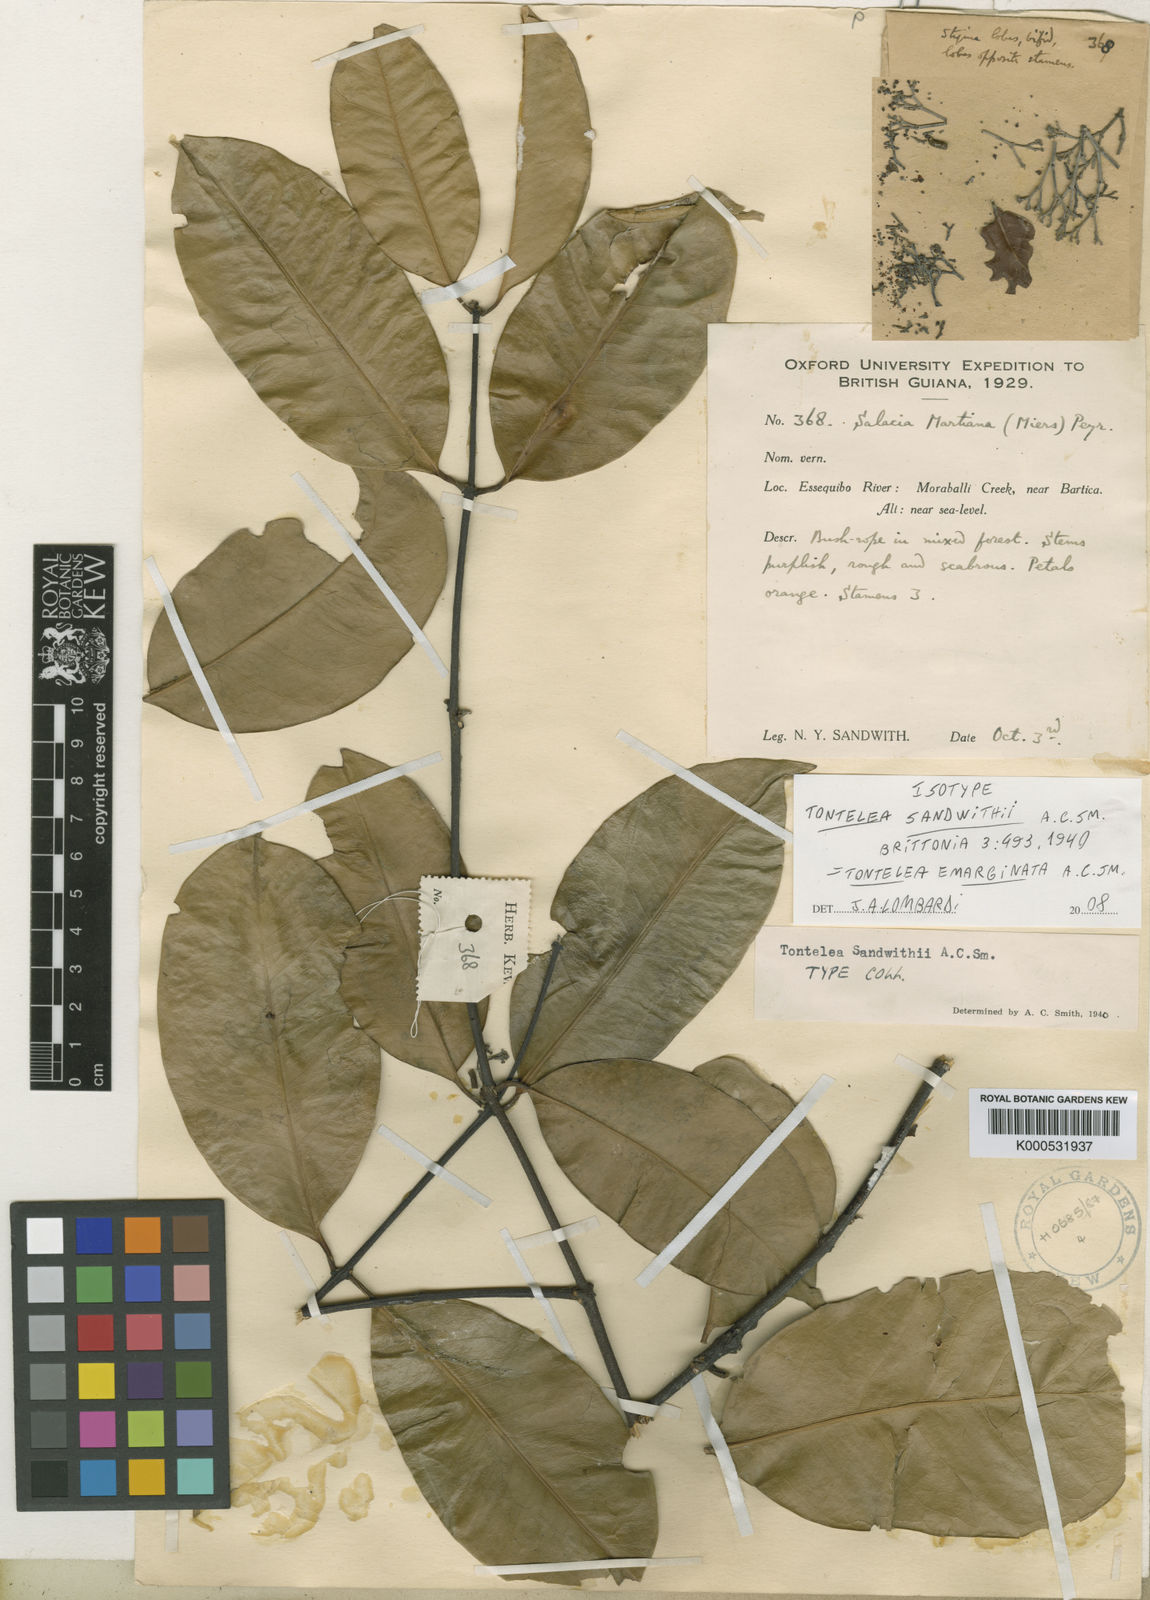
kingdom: Plantae
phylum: Tracheophyta
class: Magnoliopsida
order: Celastrales
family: Celastraceae
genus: Tontelea
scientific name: Tontelea emarginata
